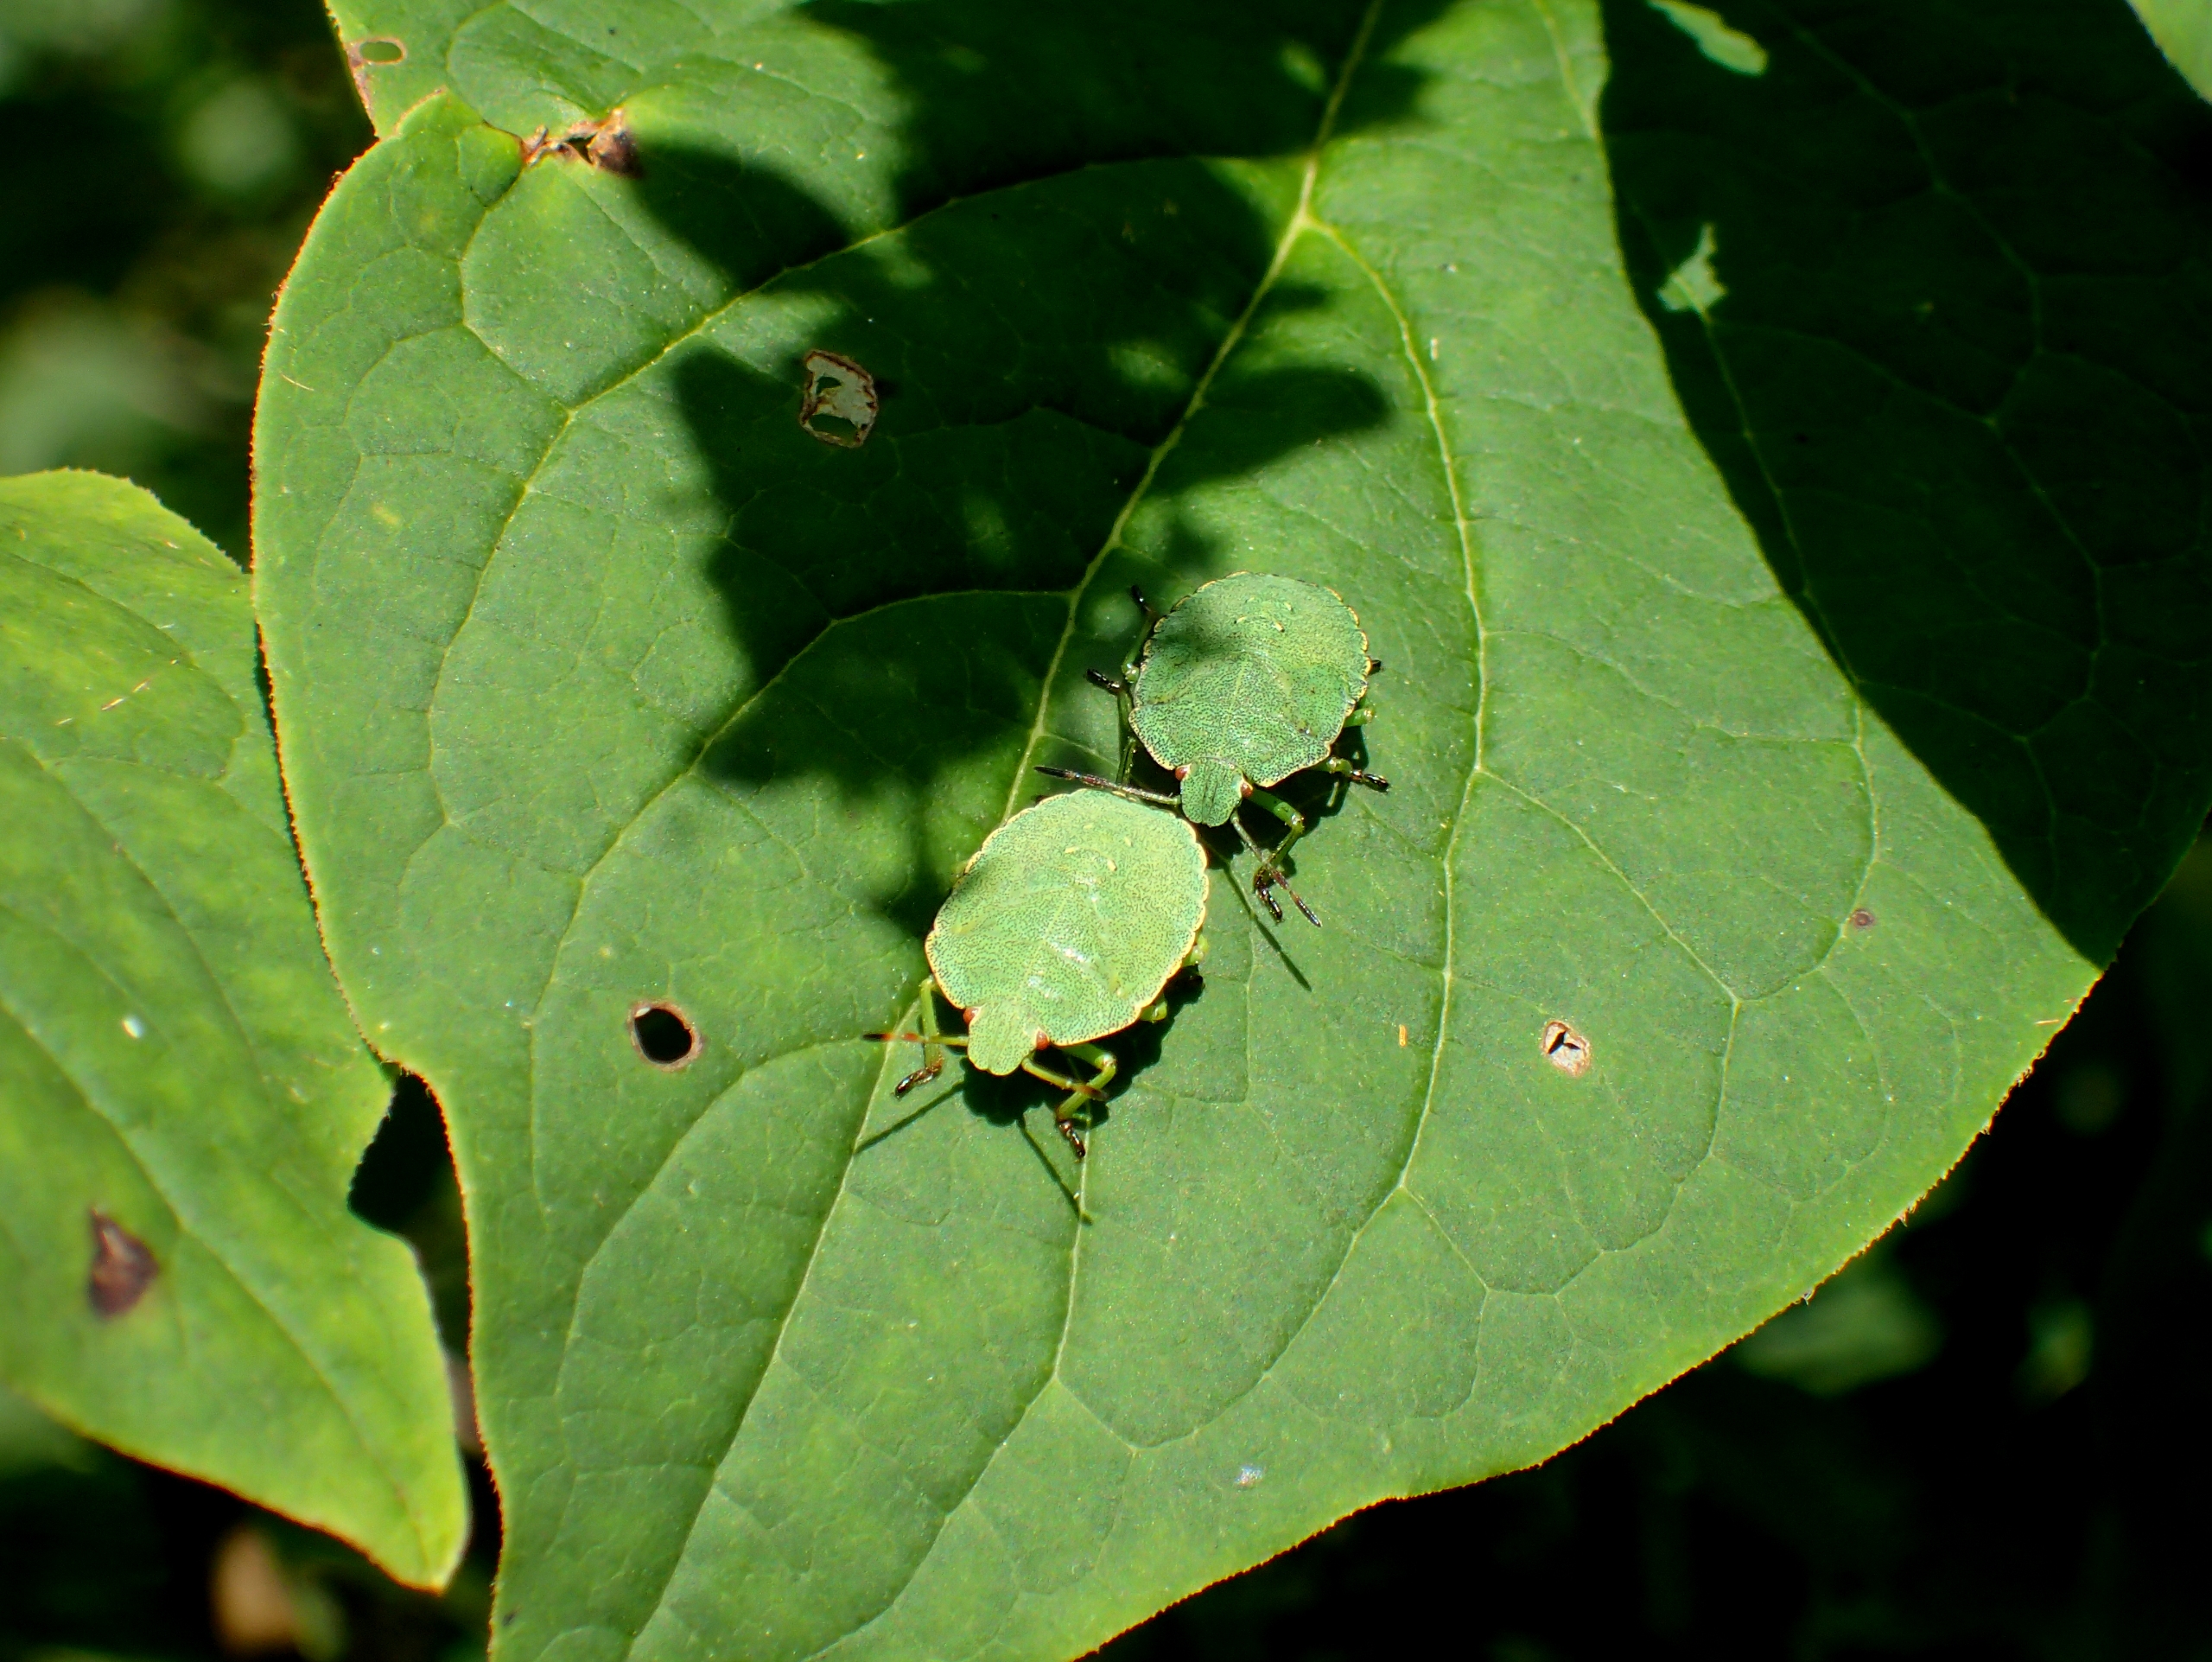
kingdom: Animalia
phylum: Arthropoda
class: Insecta
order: Hemiptera
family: Pentatomidae
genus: Palomena
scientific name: Palomena prasina
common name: Grøn bredtæge
